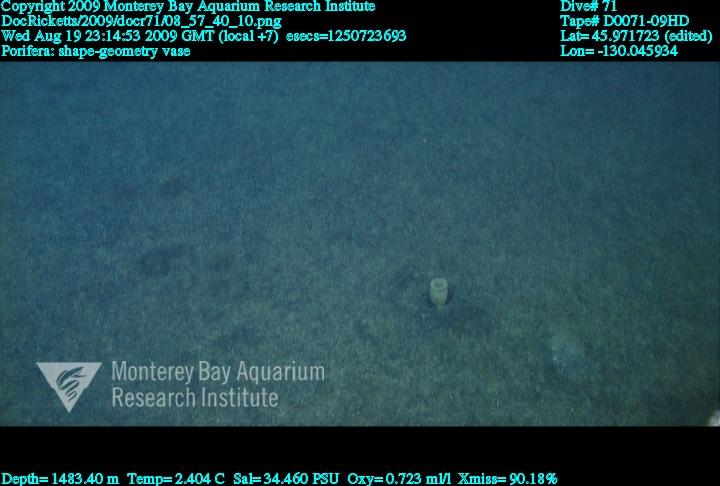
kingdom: Animalia
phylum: Porifera
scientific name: Porifera
